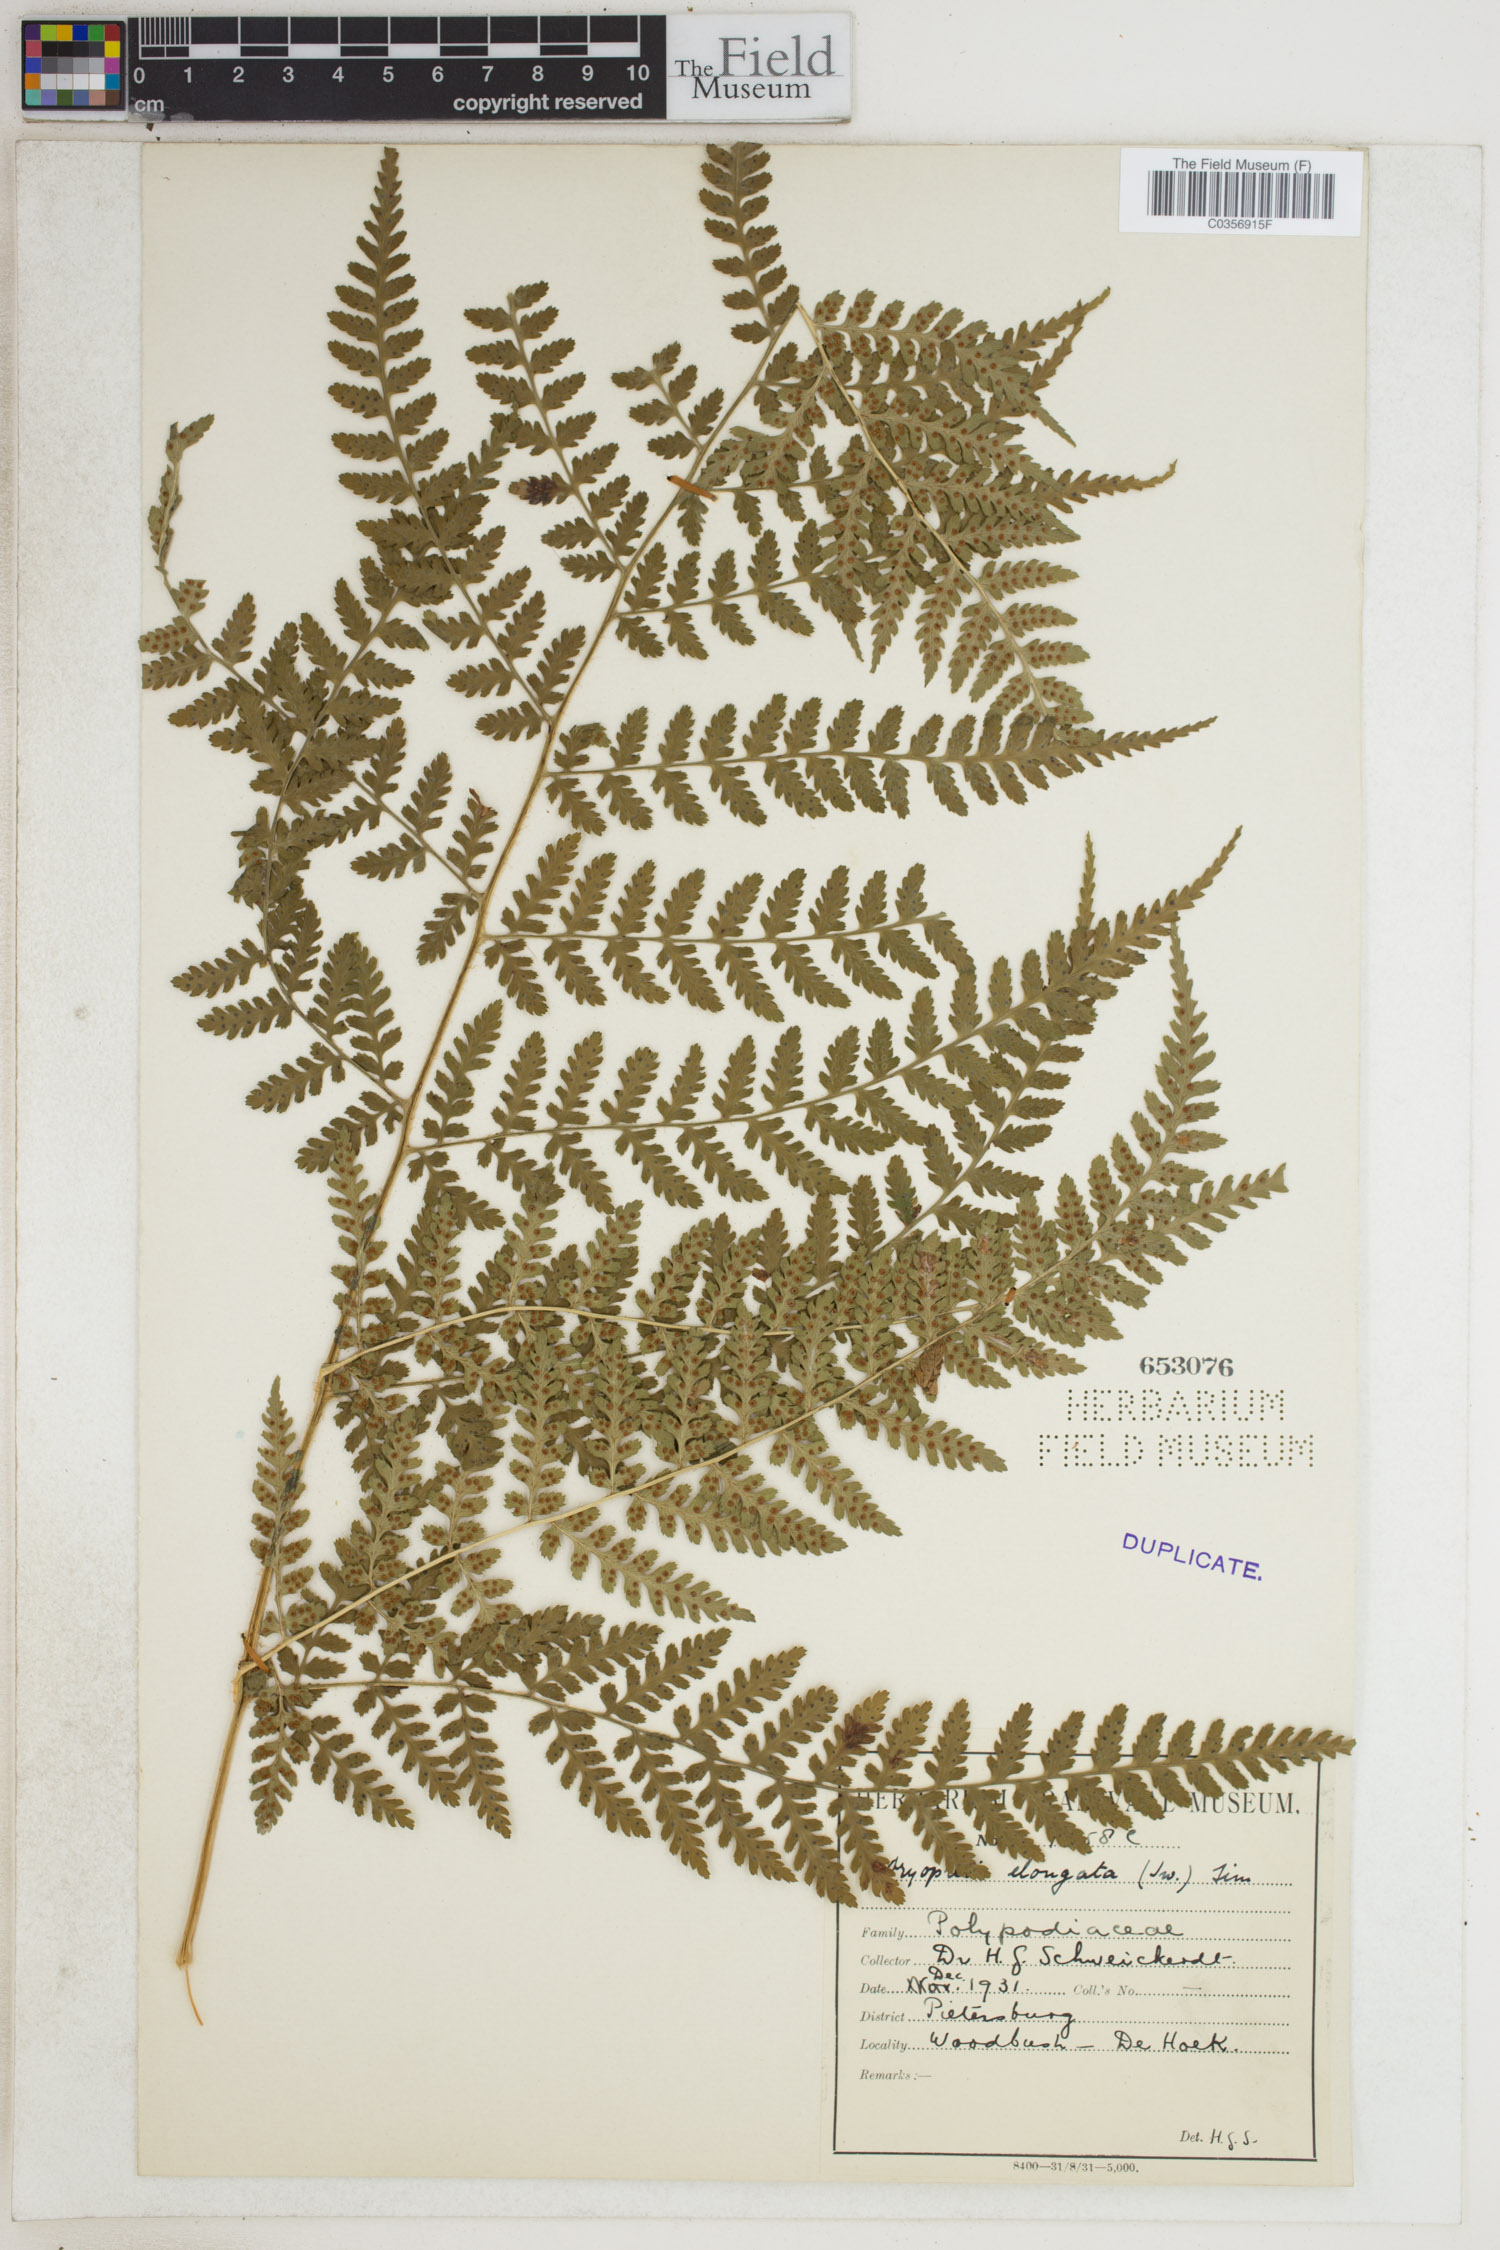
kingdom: Plantae
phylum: Tracheophyta
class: Polypodiopsida
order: Polypodiales
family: Athyriaceae
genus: Anisocampium
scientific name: Anisocampium cuspidatum
